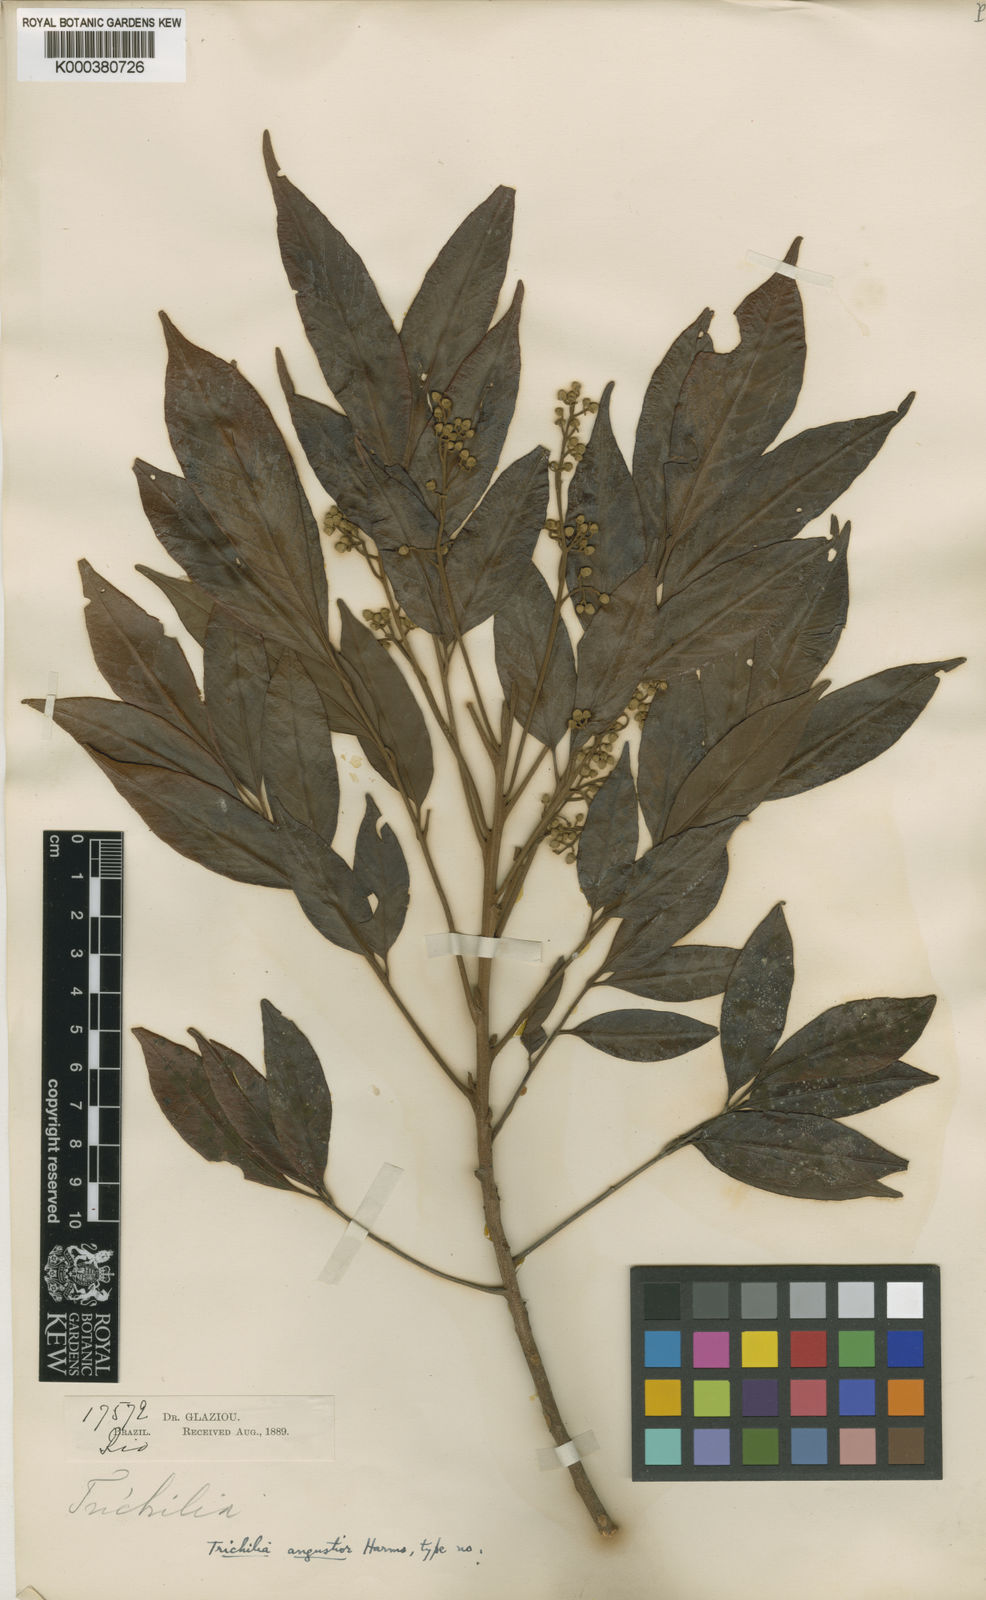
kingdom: Plantae
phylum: Tracheophyta
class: Magnoliopsida
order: Sapindales
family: Meliaceae
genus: Trichilia
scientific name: Trichilia lepidota
